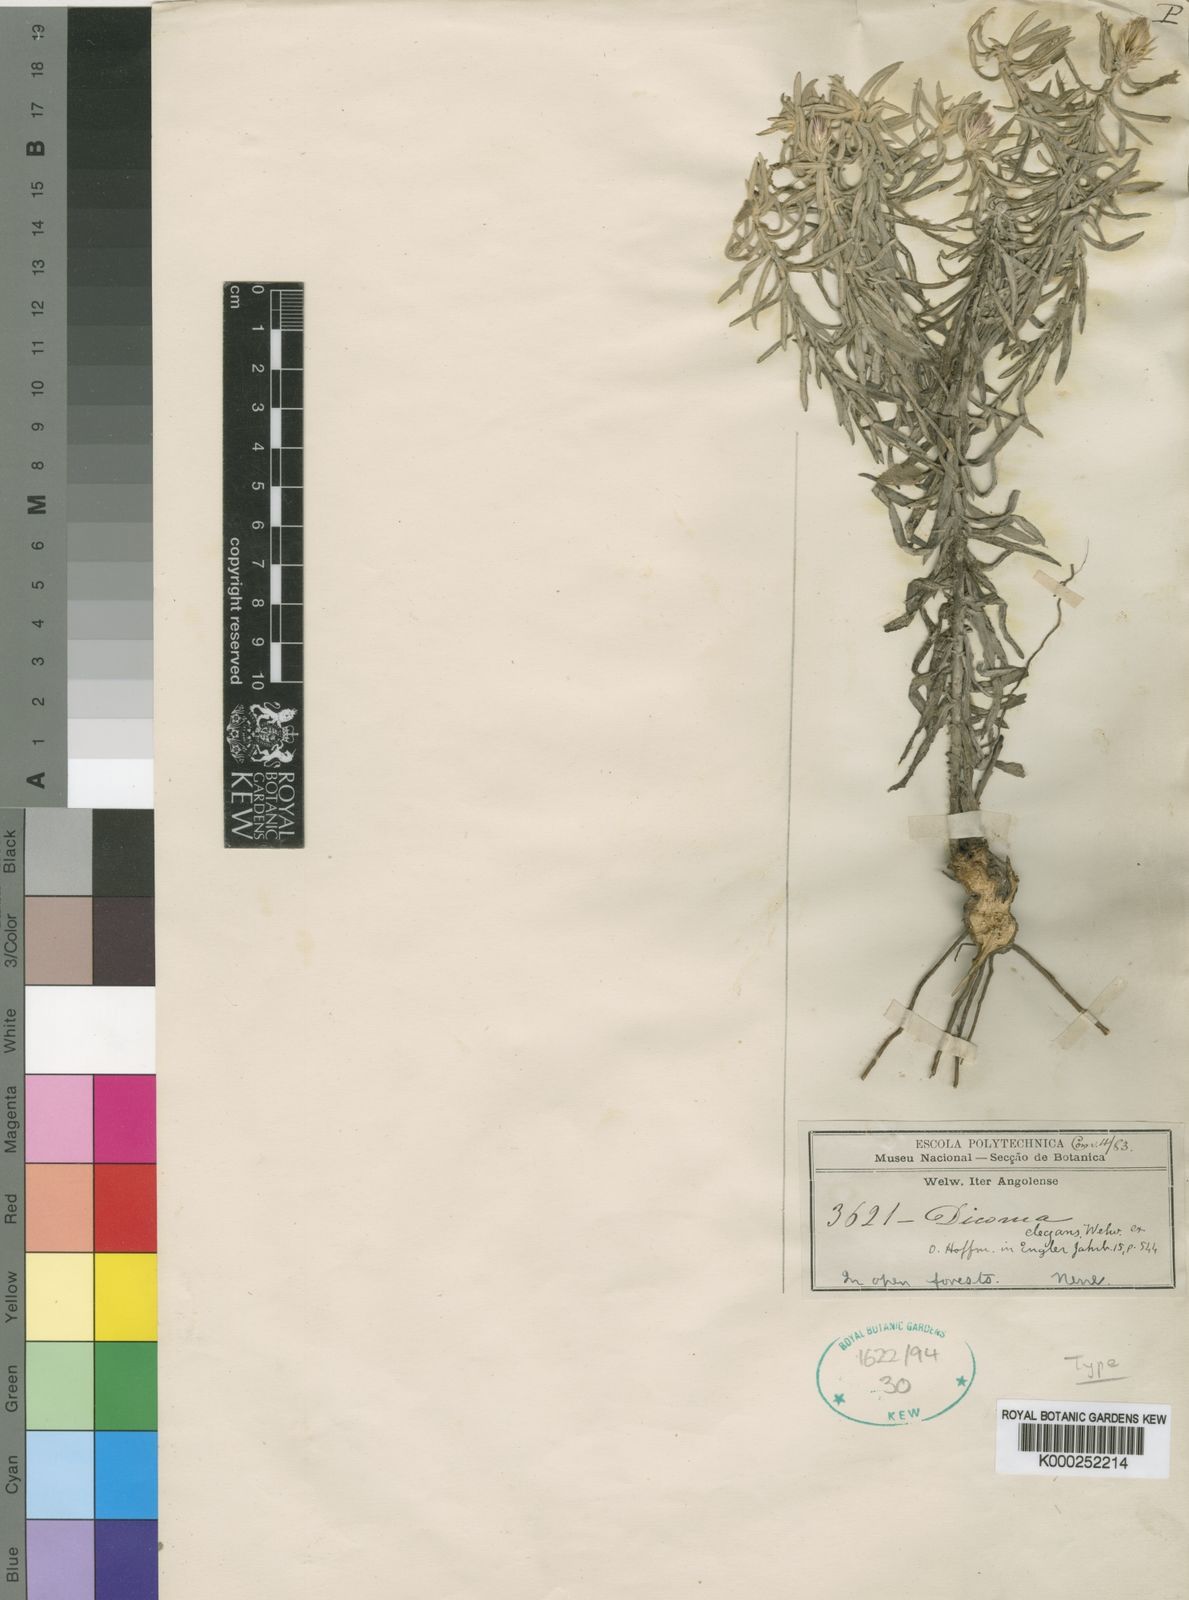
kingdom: Plantae
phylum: Tracheophyta
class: Magnoliopsida
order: Asterales
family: Asteraceae
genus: Dicoma
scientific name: Dicoma elegans
